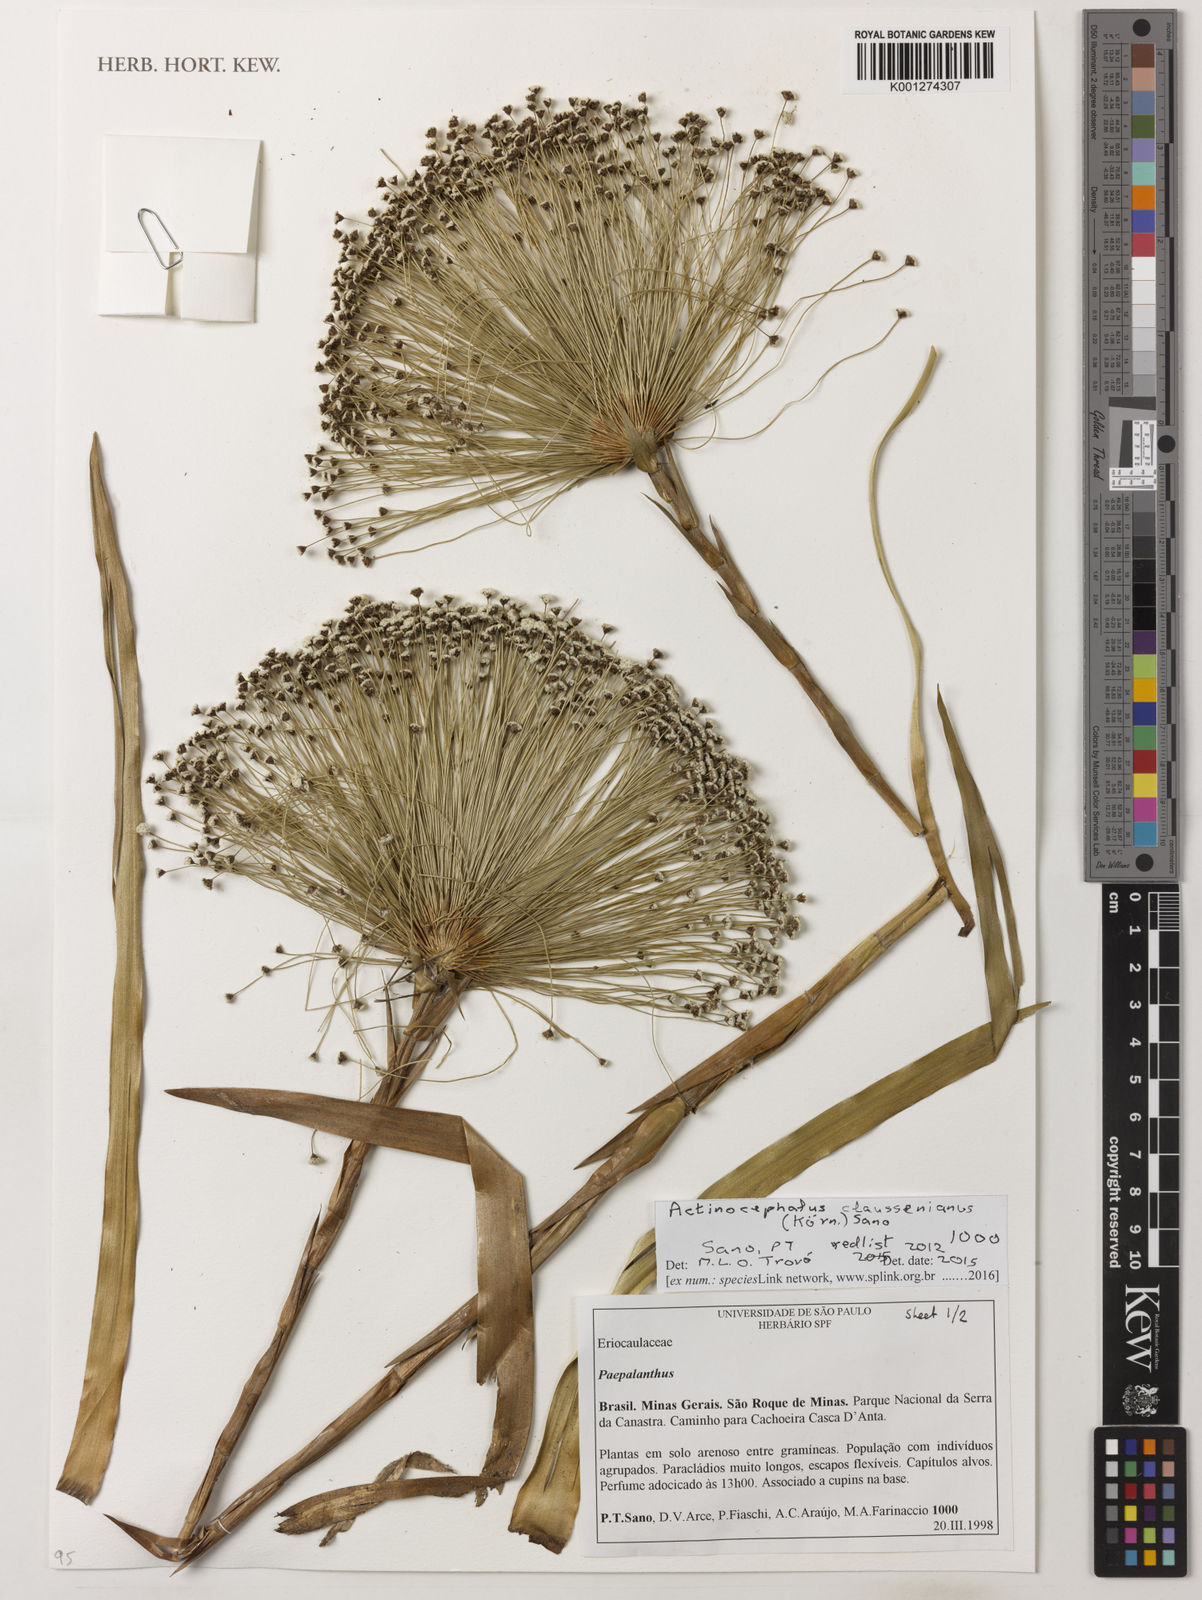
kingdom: Plantae
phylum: Tracheophyta
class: Liliopsida
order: Poales
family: Eriocaulaceae
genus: Paepalanthus
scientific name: Paepalanthus claussenianus
